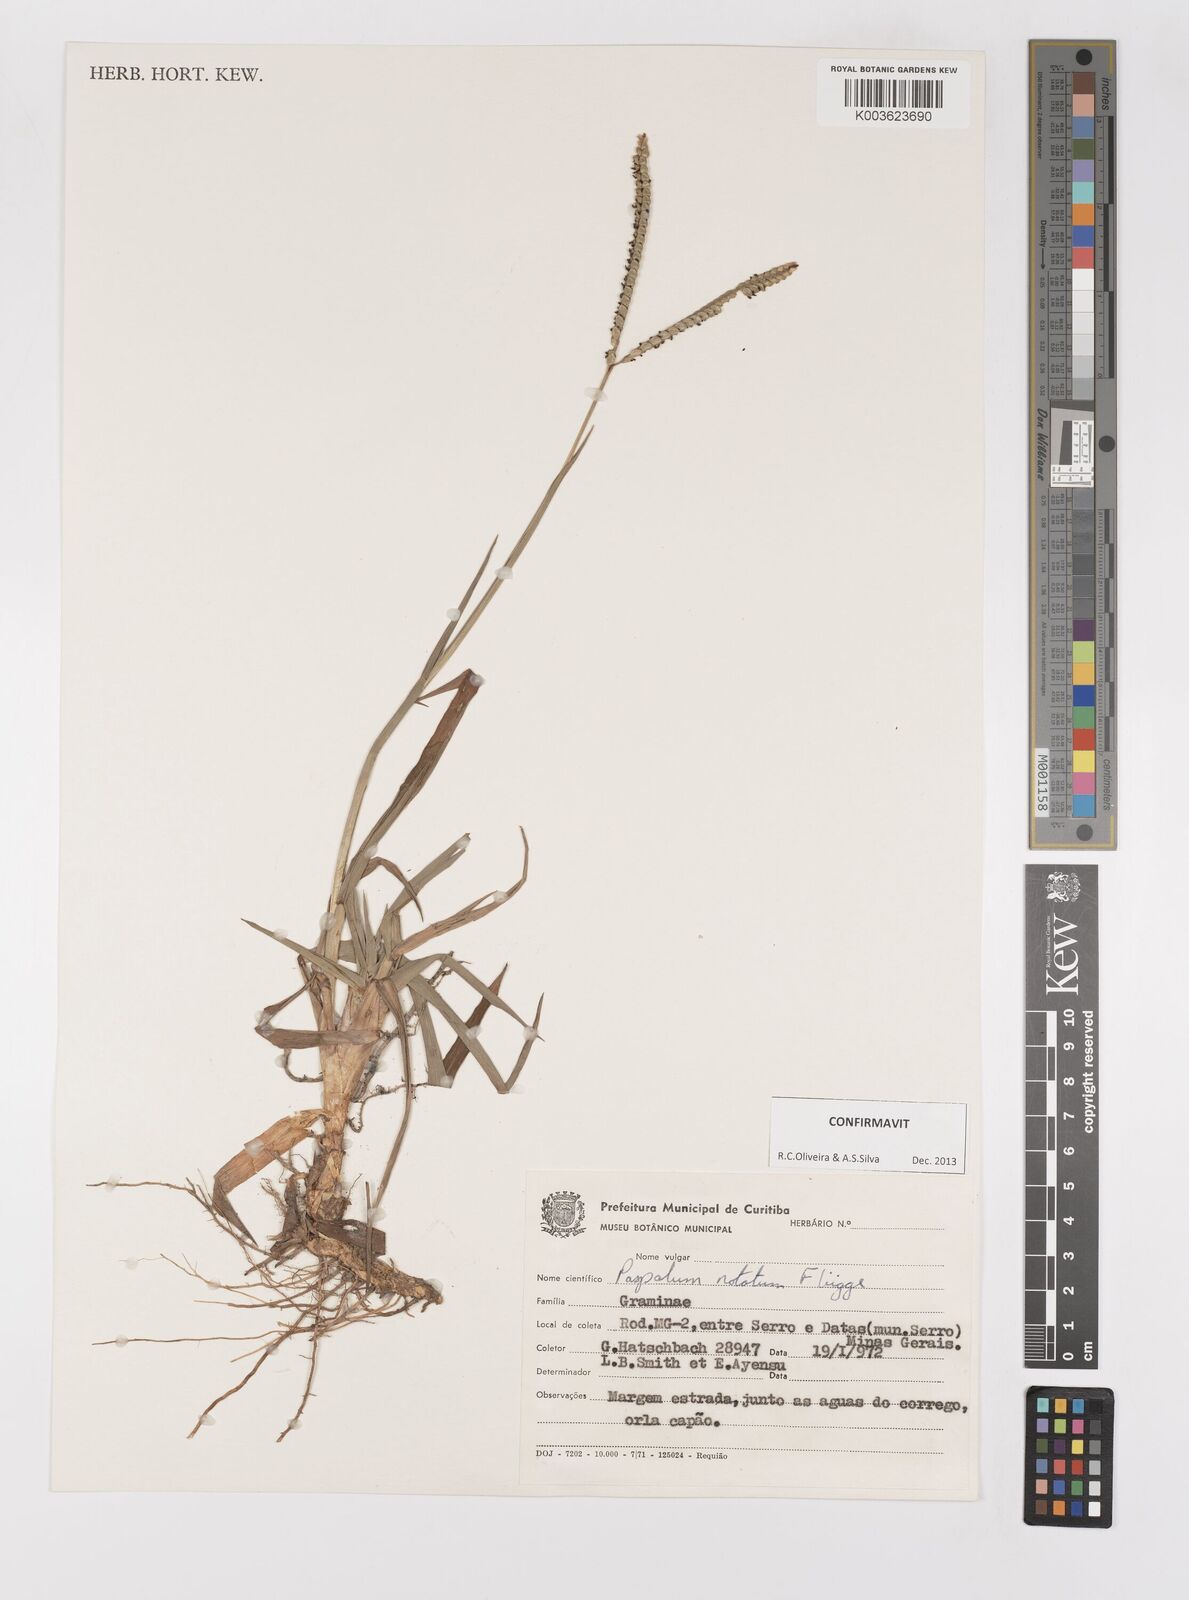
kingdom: Plantae
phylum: Tracheophyta
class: Liliopsida
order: Poales
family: Poaceae
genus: Paspalum
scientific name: Paspalum notatum
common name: Bahiagrass
